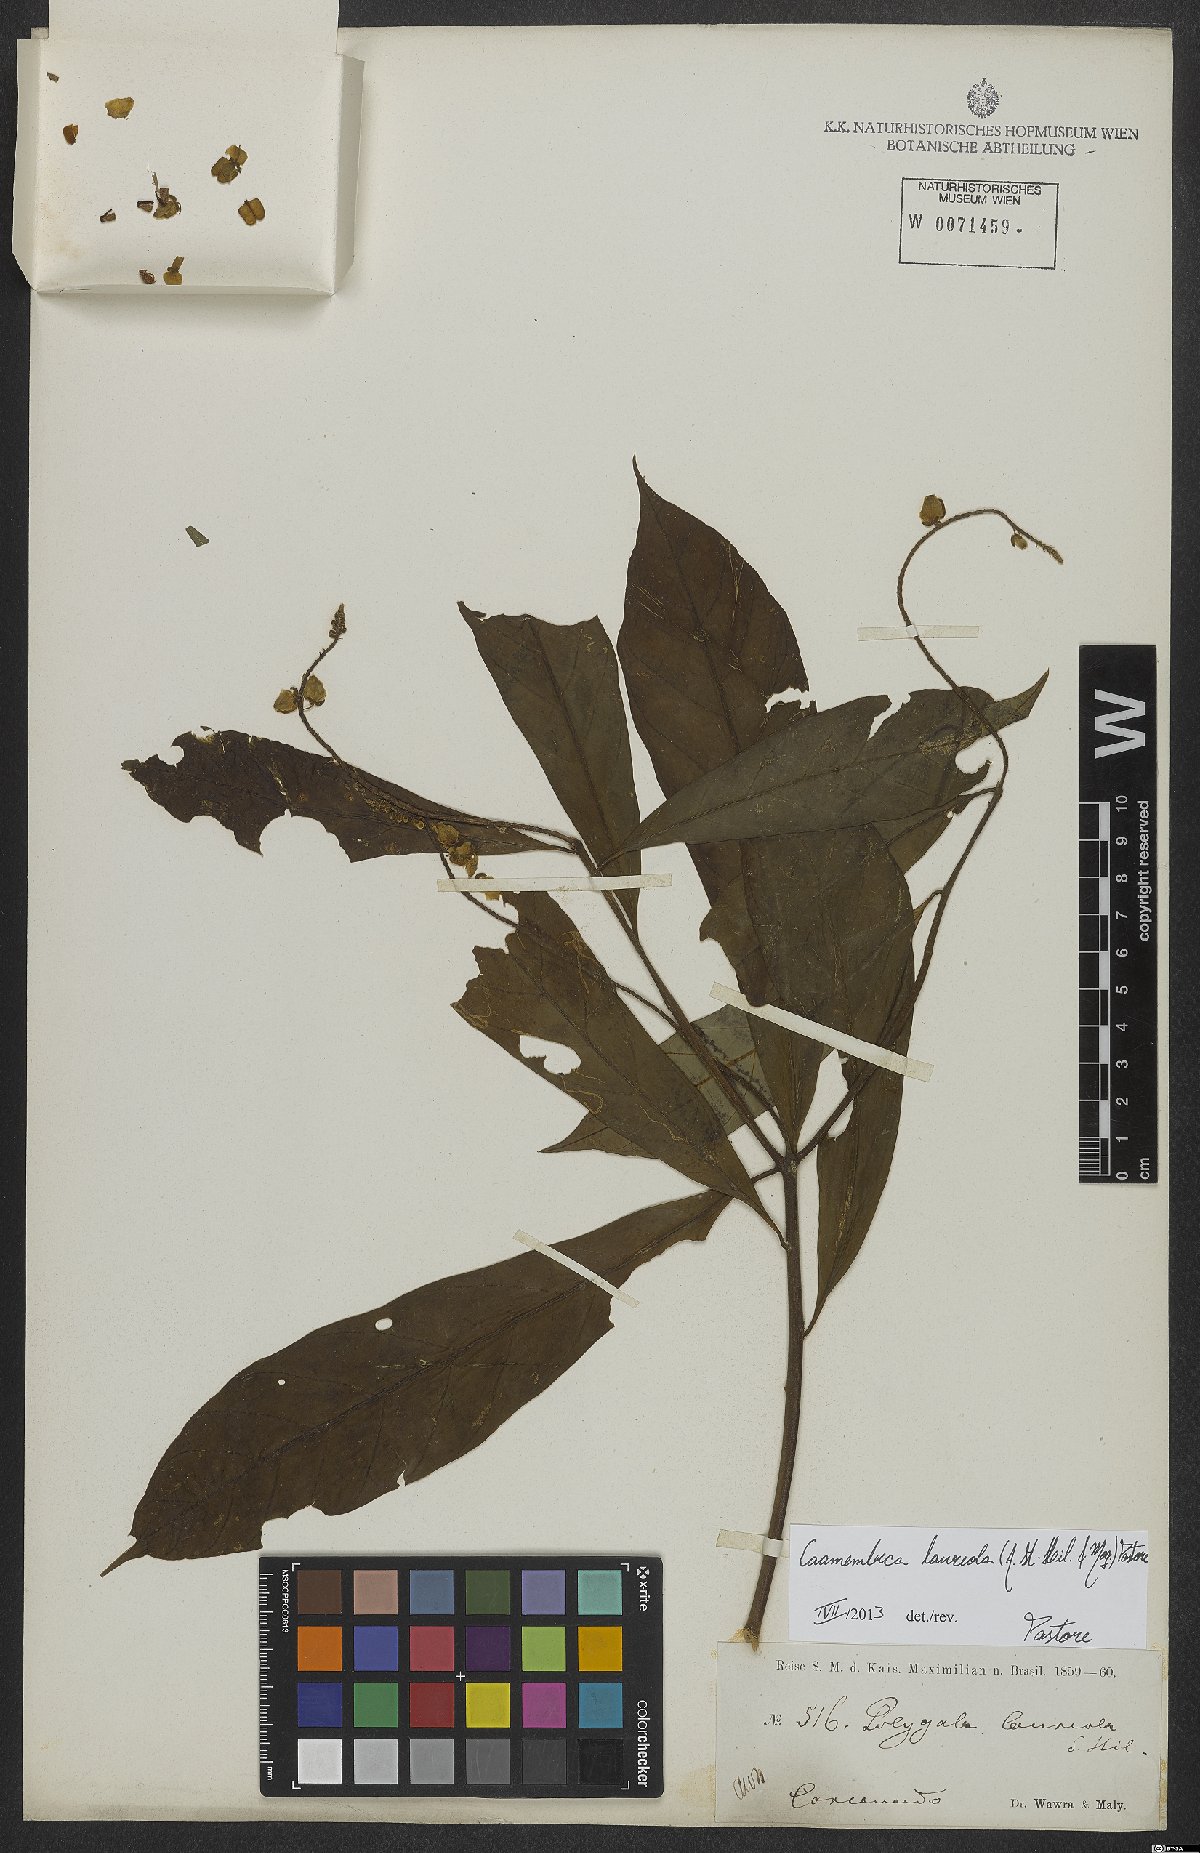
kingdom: Plantae
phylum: Tracheophyta
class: Magnoliopsida
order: Fabales
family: Polygalaceae
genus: Caamembeca
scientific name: Caamembeca salicifolia
